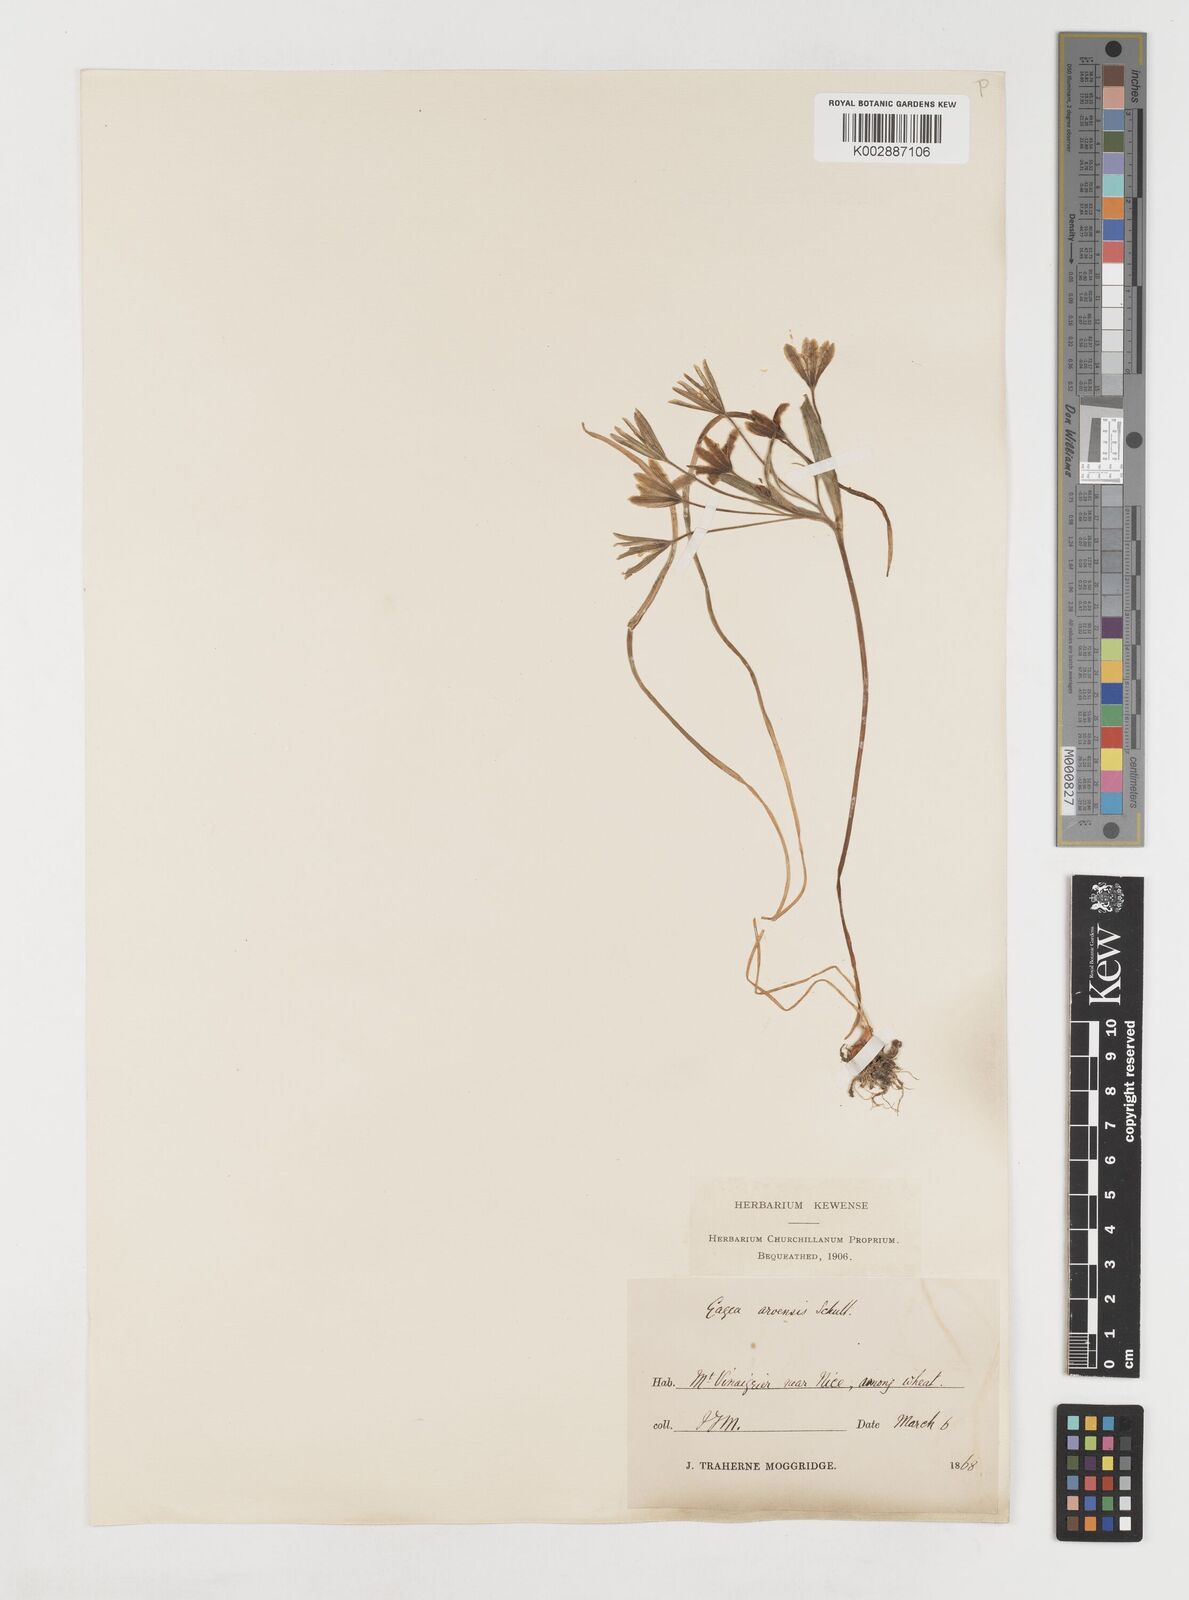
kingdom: Plantae
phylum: Tracheophyta
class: Liliopsida
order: Liliales
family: Liliaceae
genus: Gagea
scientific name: Gagea minima
